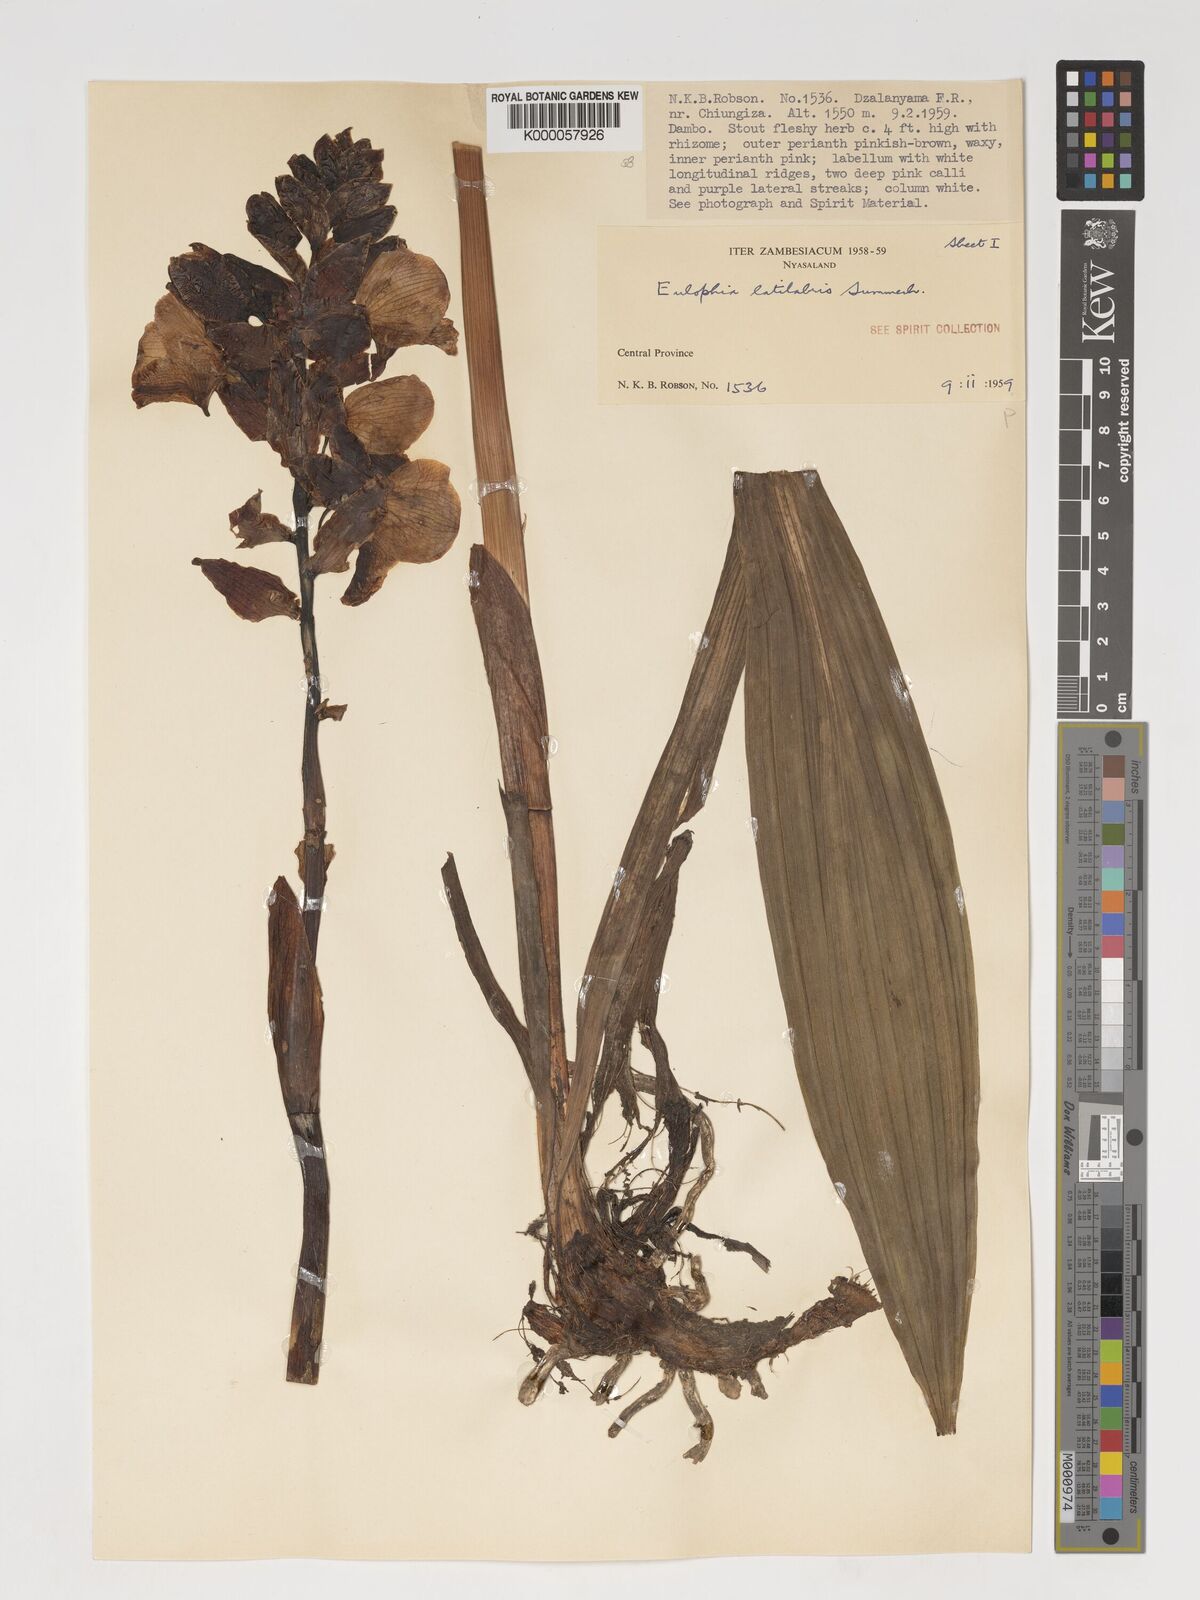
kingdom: Plantae
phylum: Tracheophyta
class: Liliopsida
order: Asparagales
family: Orchidaceae
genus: Eulophia
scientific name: Eulophia latilabris
